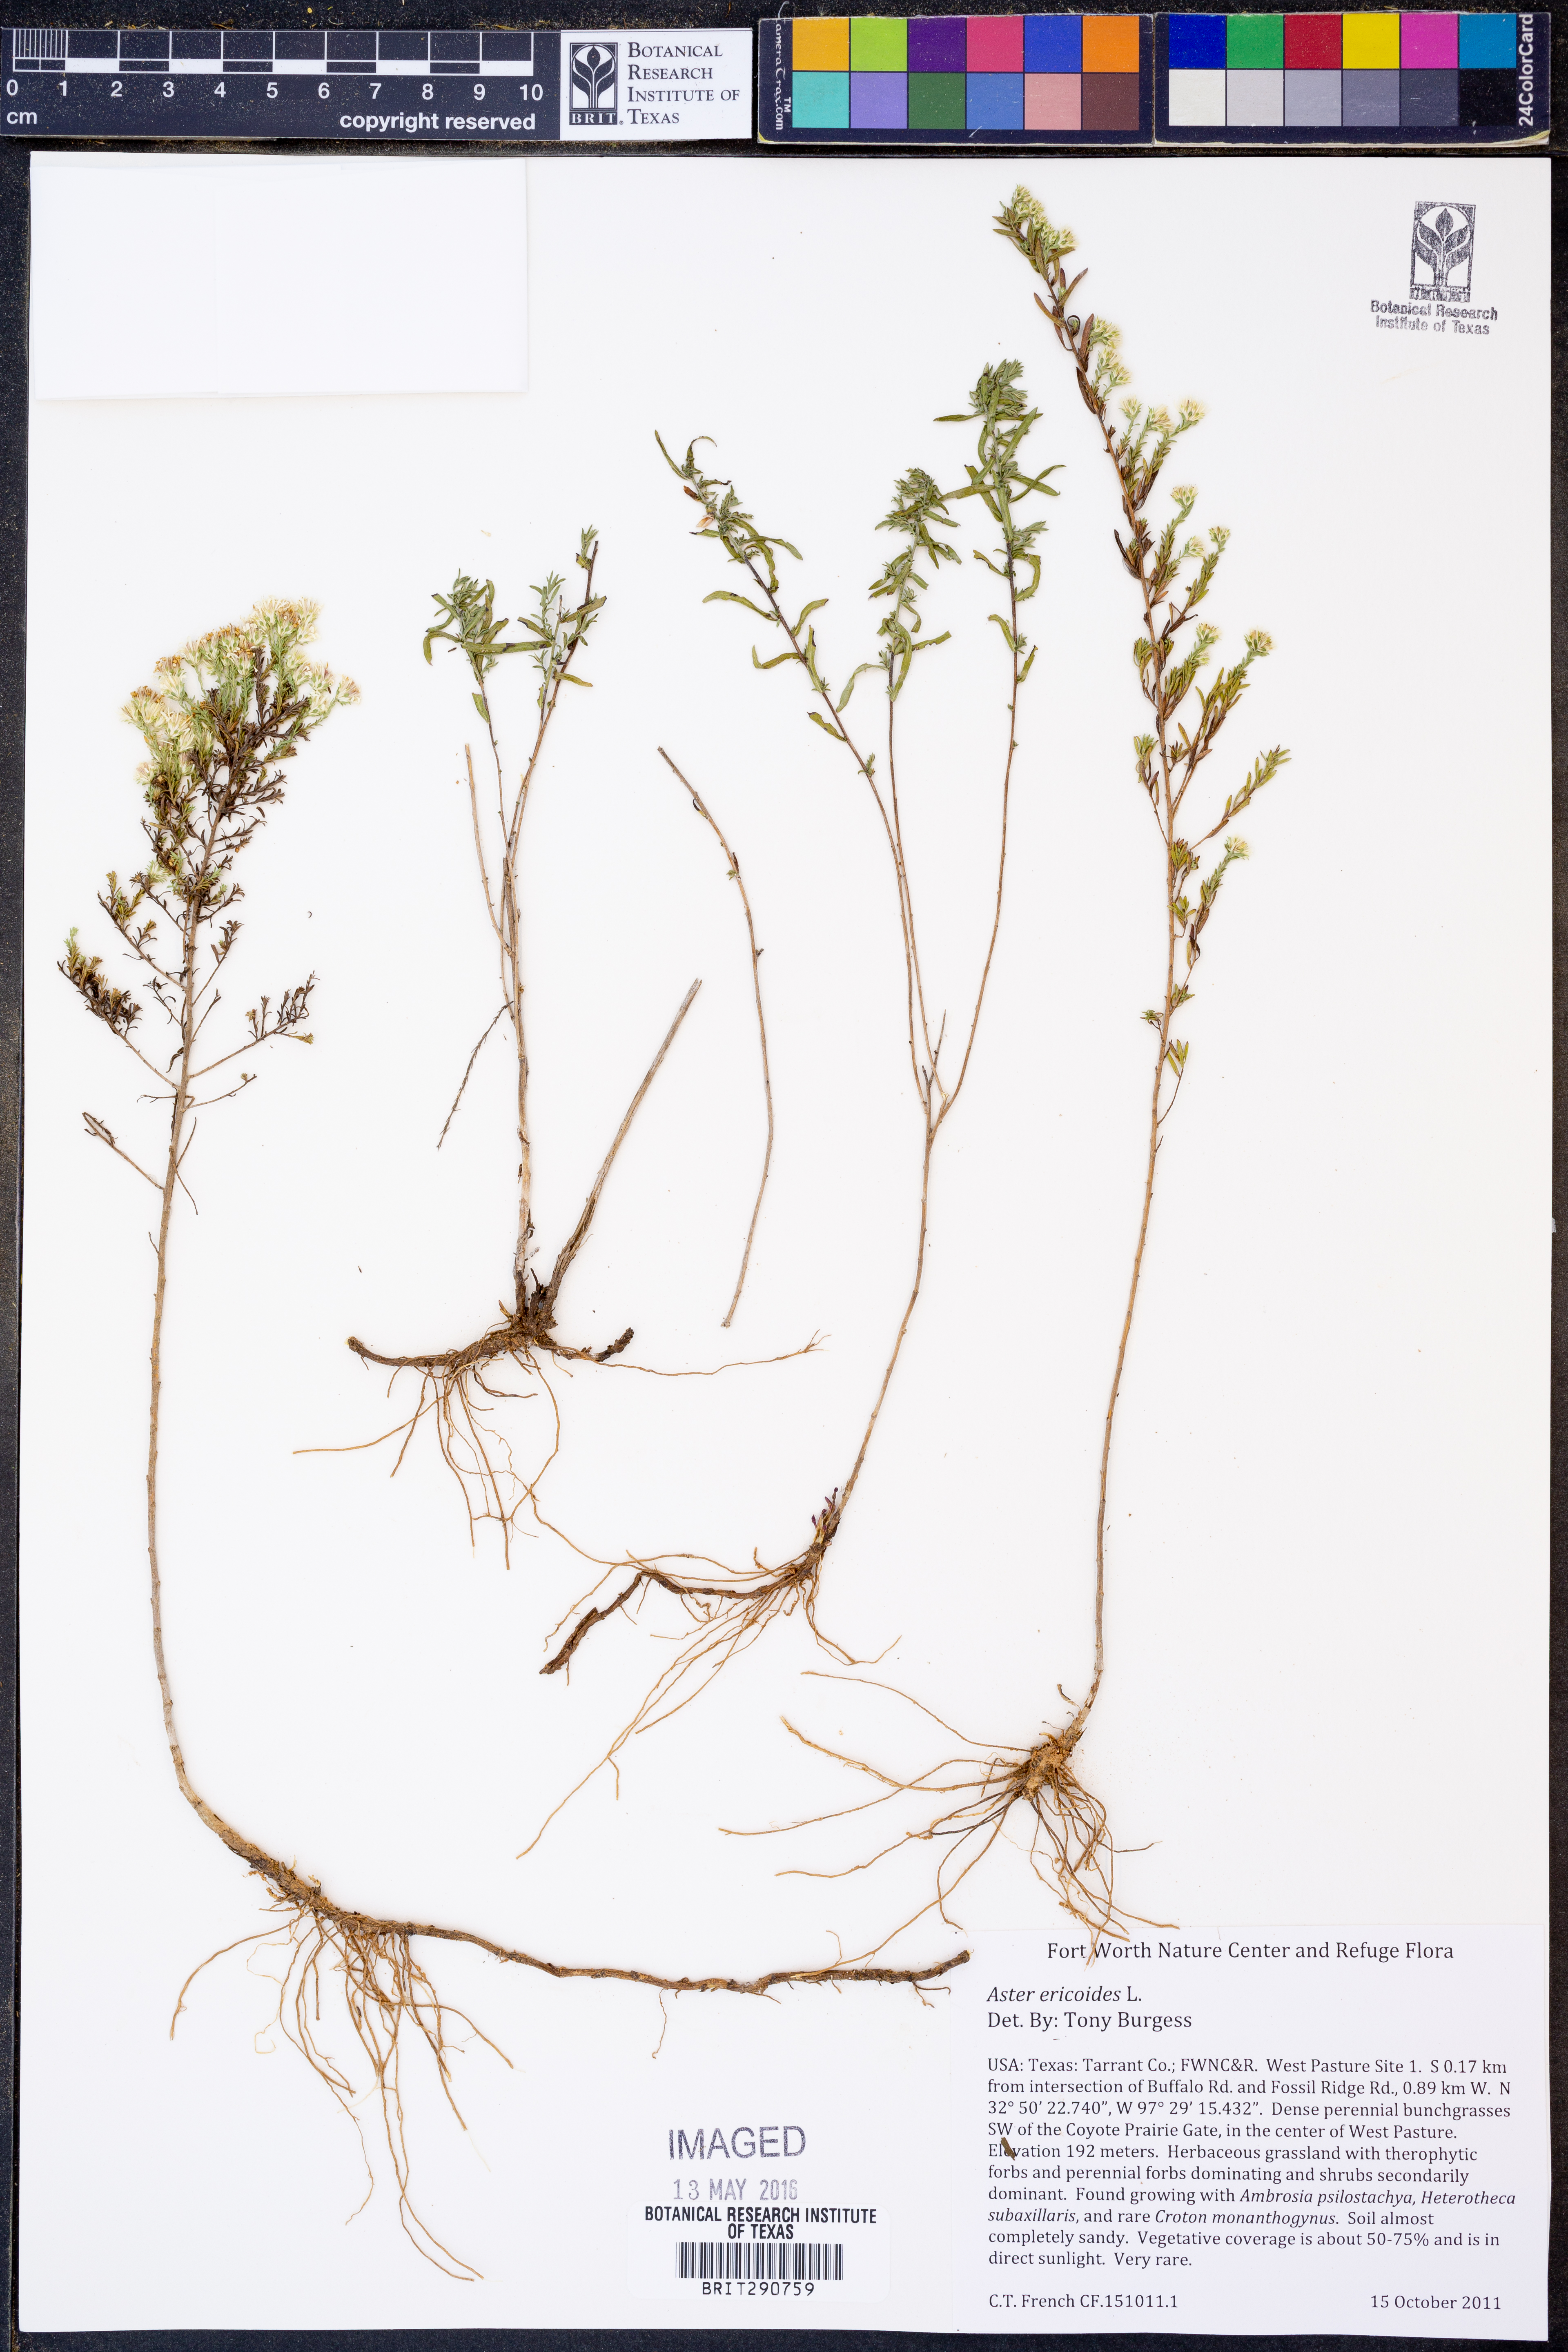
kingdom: Plantae
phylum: Tracheophyta
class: Magnoliopsida
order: Asterales
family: Asteraceae
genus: Symphyotrichum
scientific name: Symphyotrichum ericoides
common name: Heath aster
